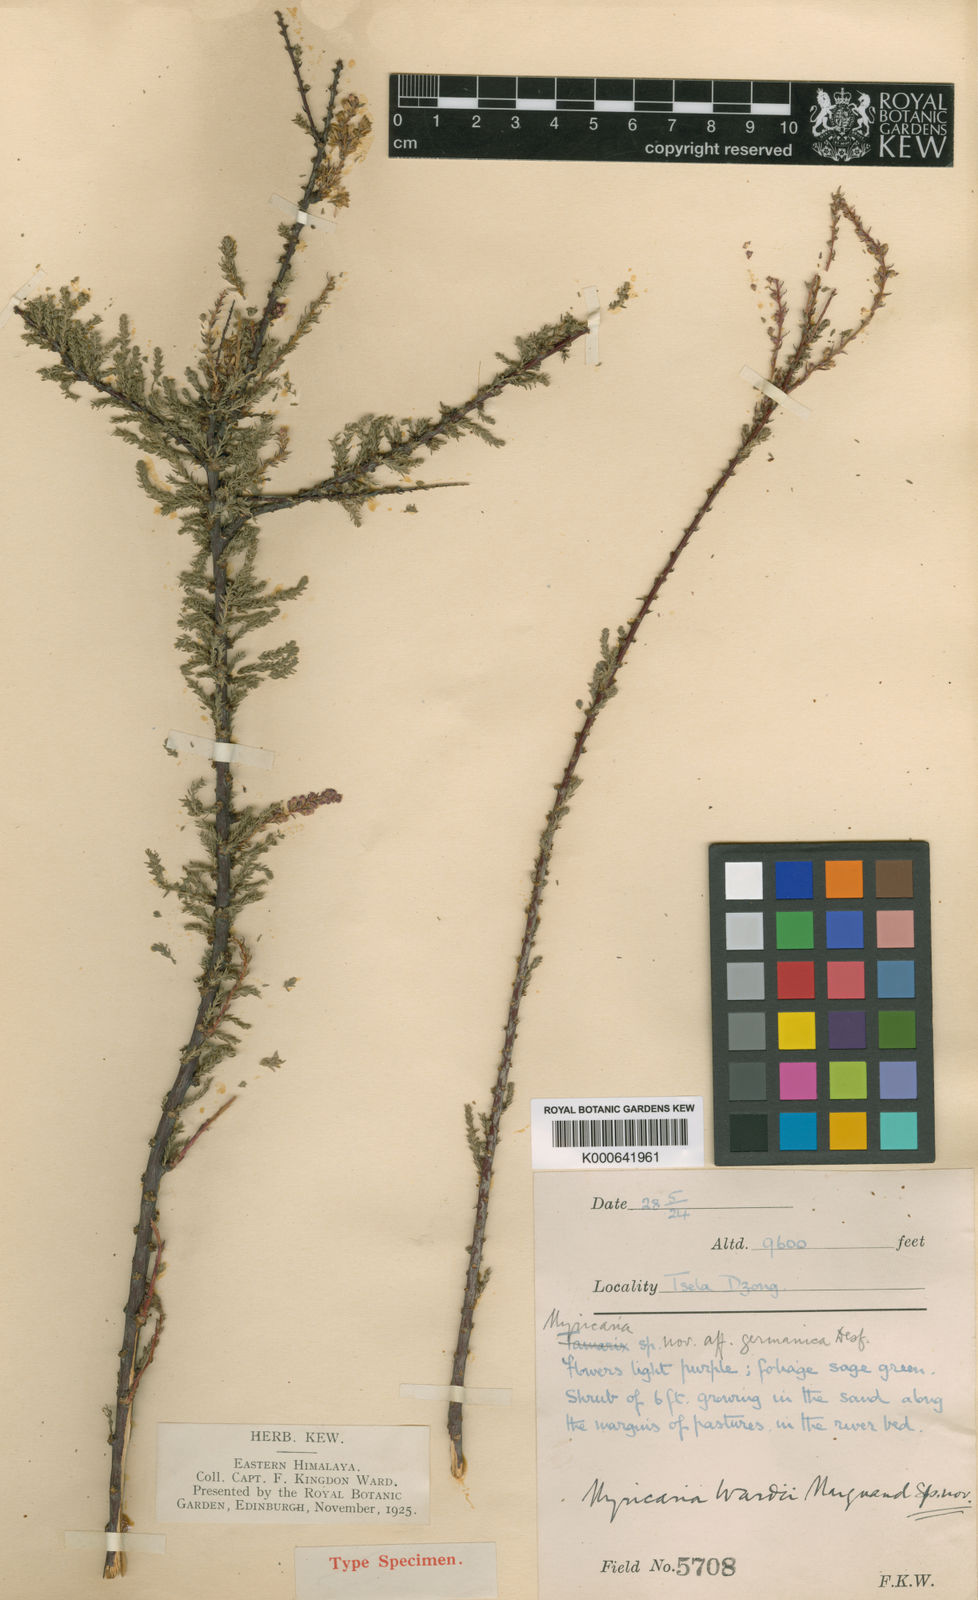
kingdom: Plantae
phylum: Tracheophyta
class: Magnoliopsida
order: Caryophyllales
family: Tamaricaceae
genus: Myricaria
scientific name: Myricaria wardii
